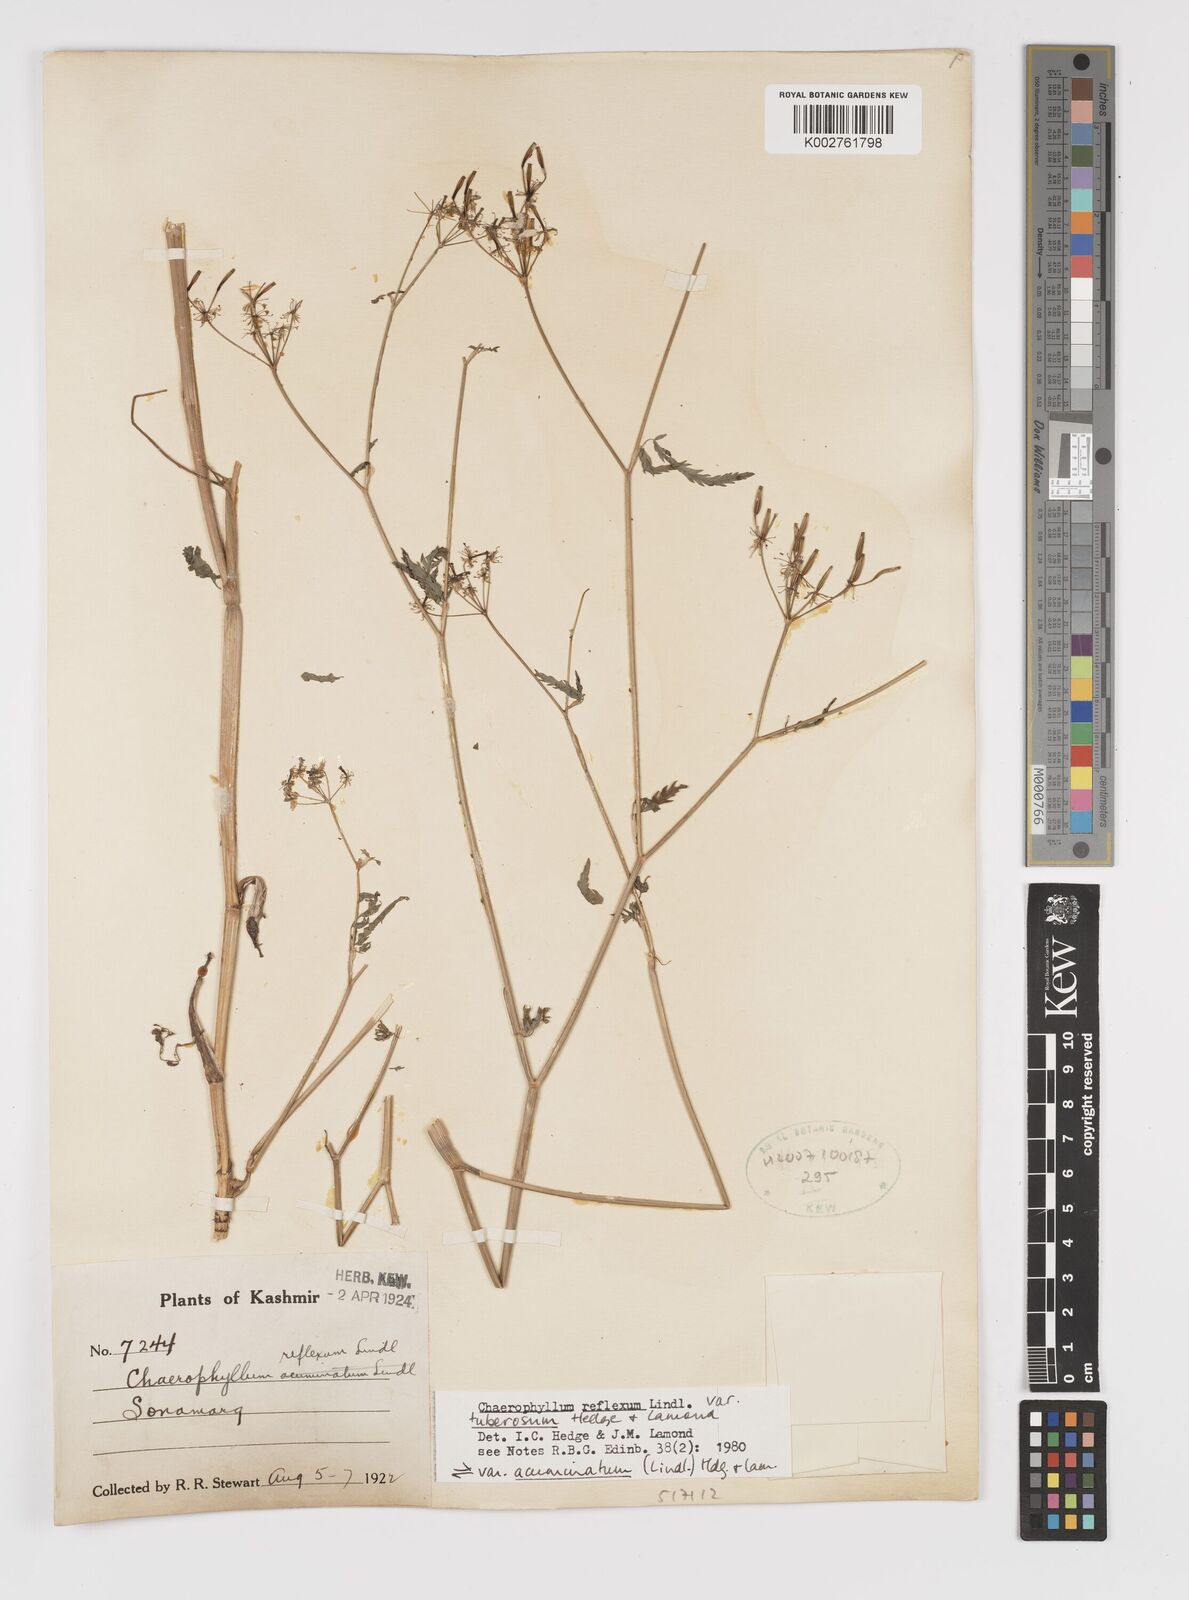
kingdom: Plantae
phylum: Tracheophyta
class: Magnoliopsida
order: Apiales
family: Apiaceae
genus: Chaerophyllum
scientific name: Chaerophyllum reflexum
